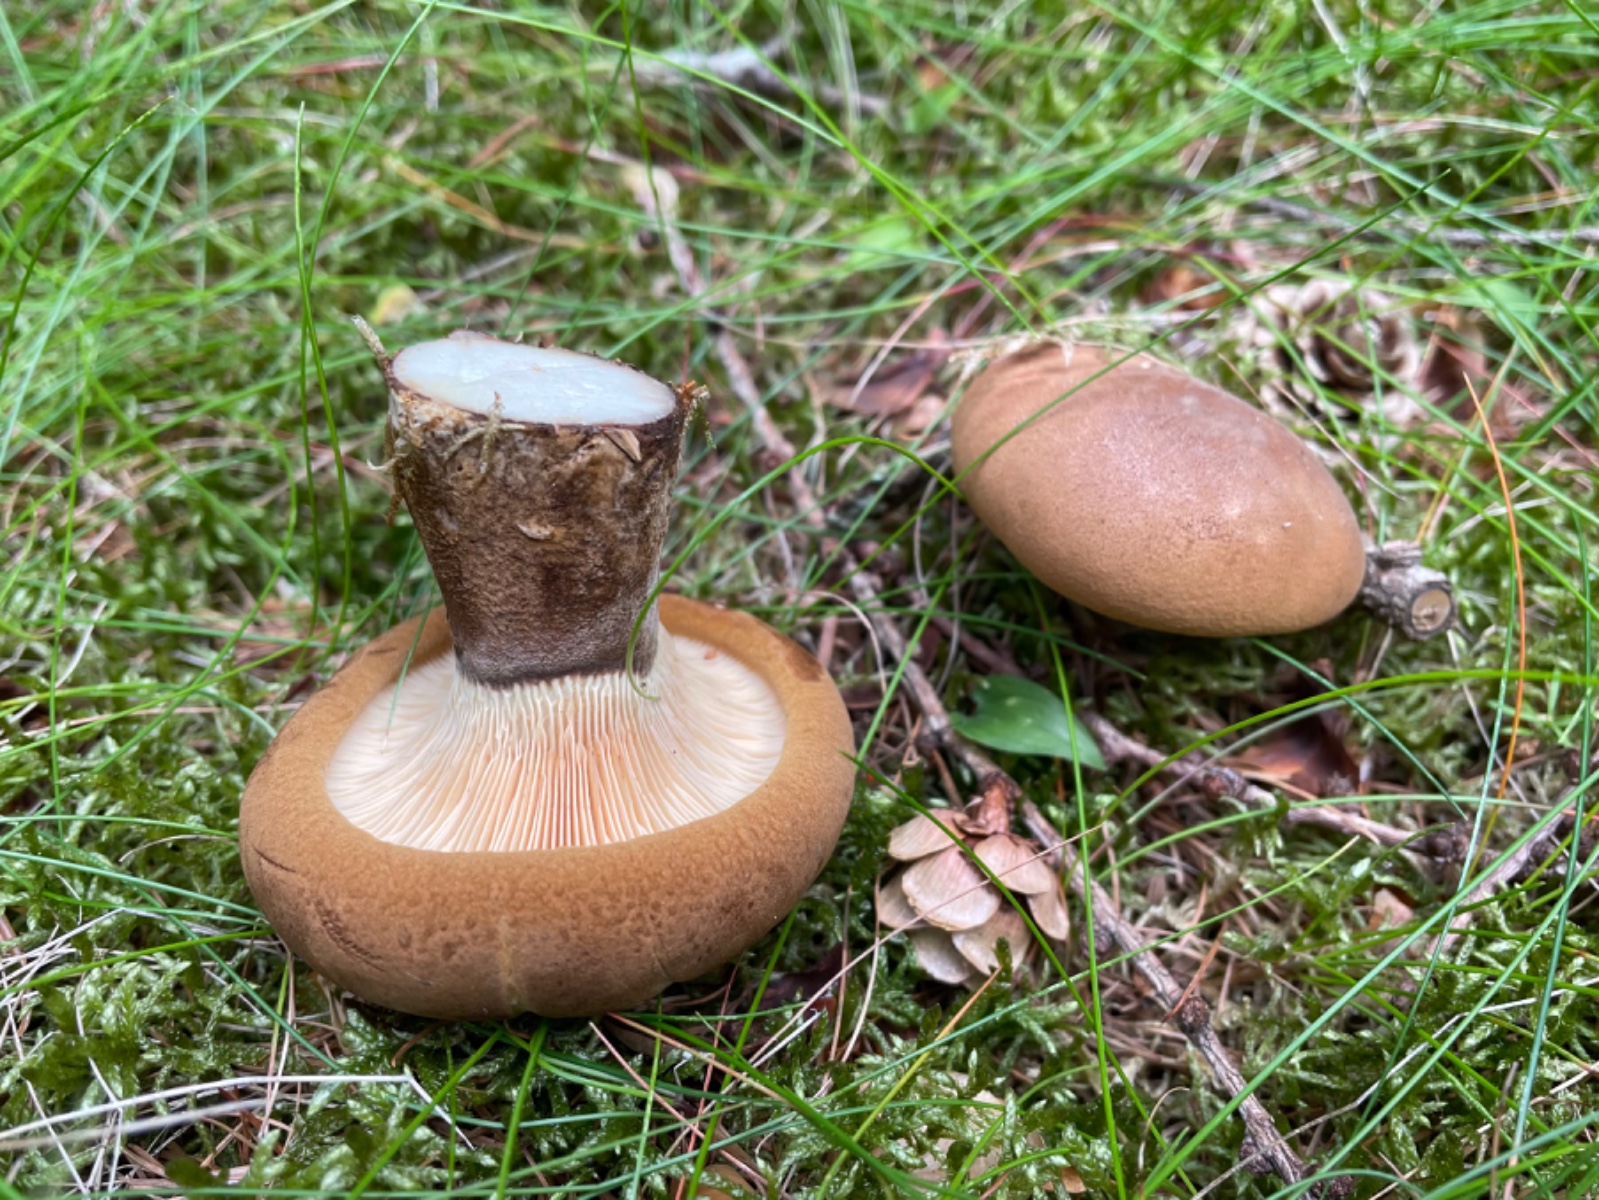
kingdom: Fungi
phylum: Basidiomycota
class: Agaricomycetes
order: Boletales
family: Tapinellaceae
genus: Tapinella
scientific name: Tapinella atrotomentosa
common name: sortfiltet viftesvamp
